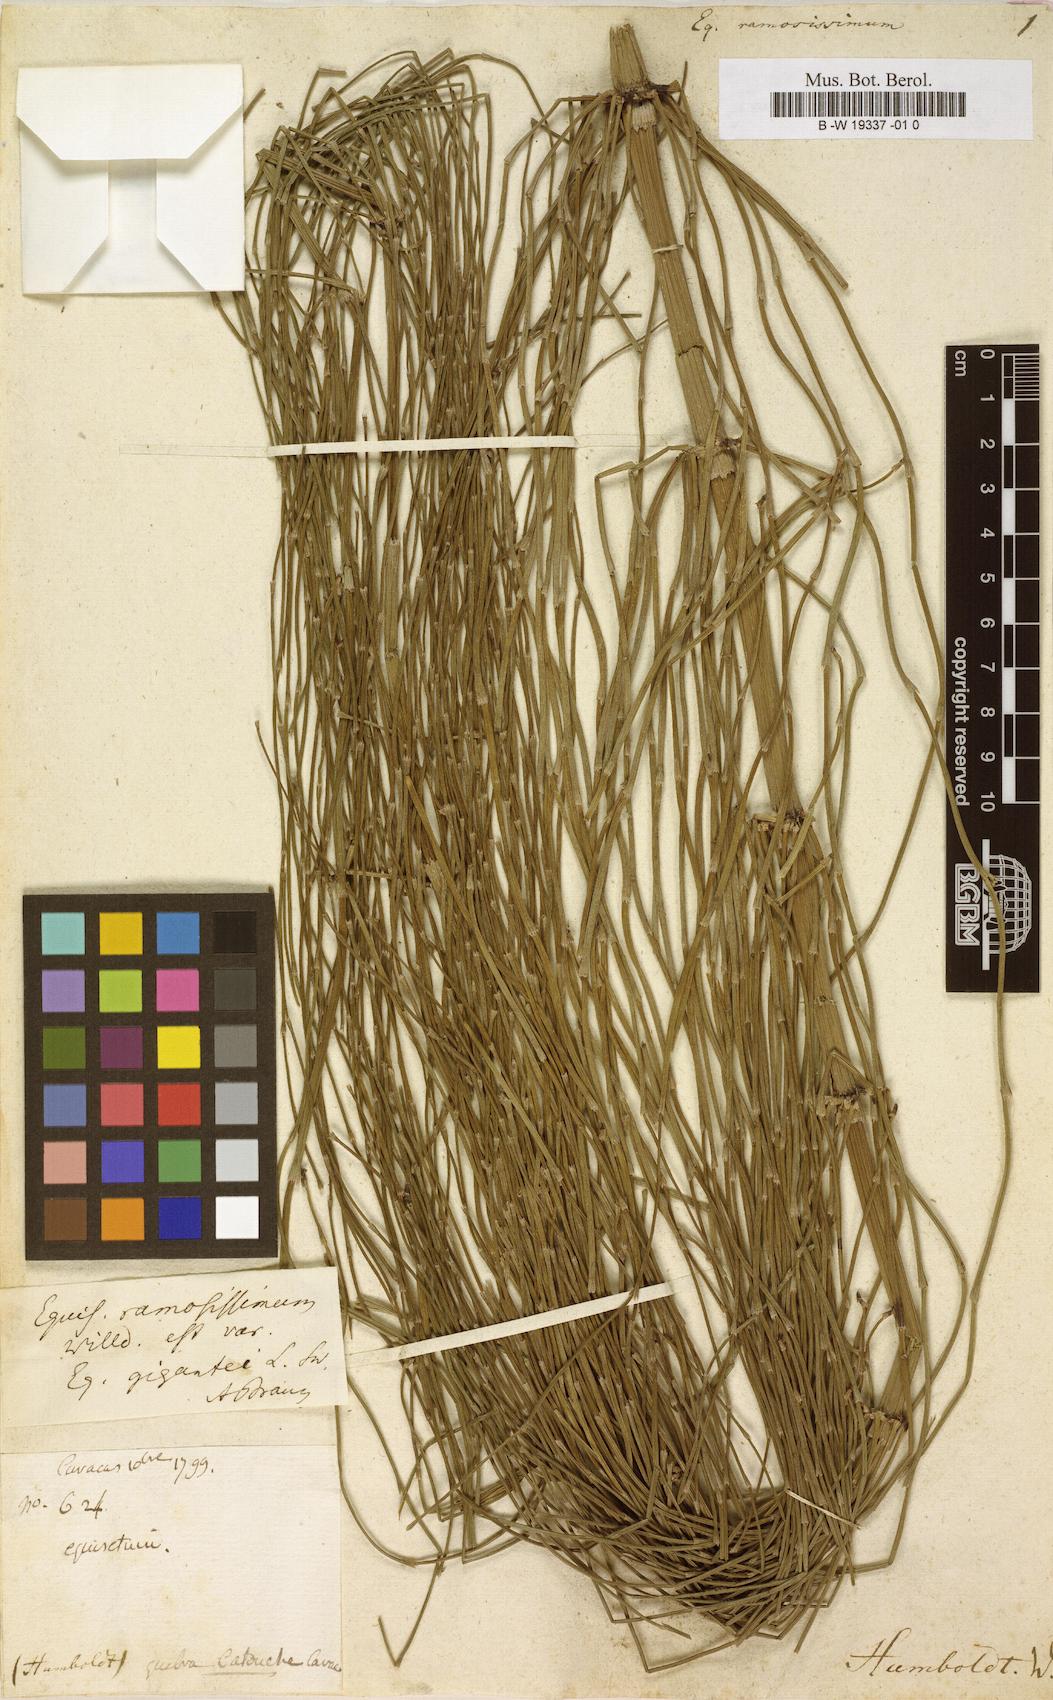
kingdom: Plantae
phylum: Tracheophyta
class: Polypodiopsida
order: Equisetales
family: Equisetaceae
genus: Equisetum
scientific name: Equisetum ramosissimum
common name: Branched horsetail
